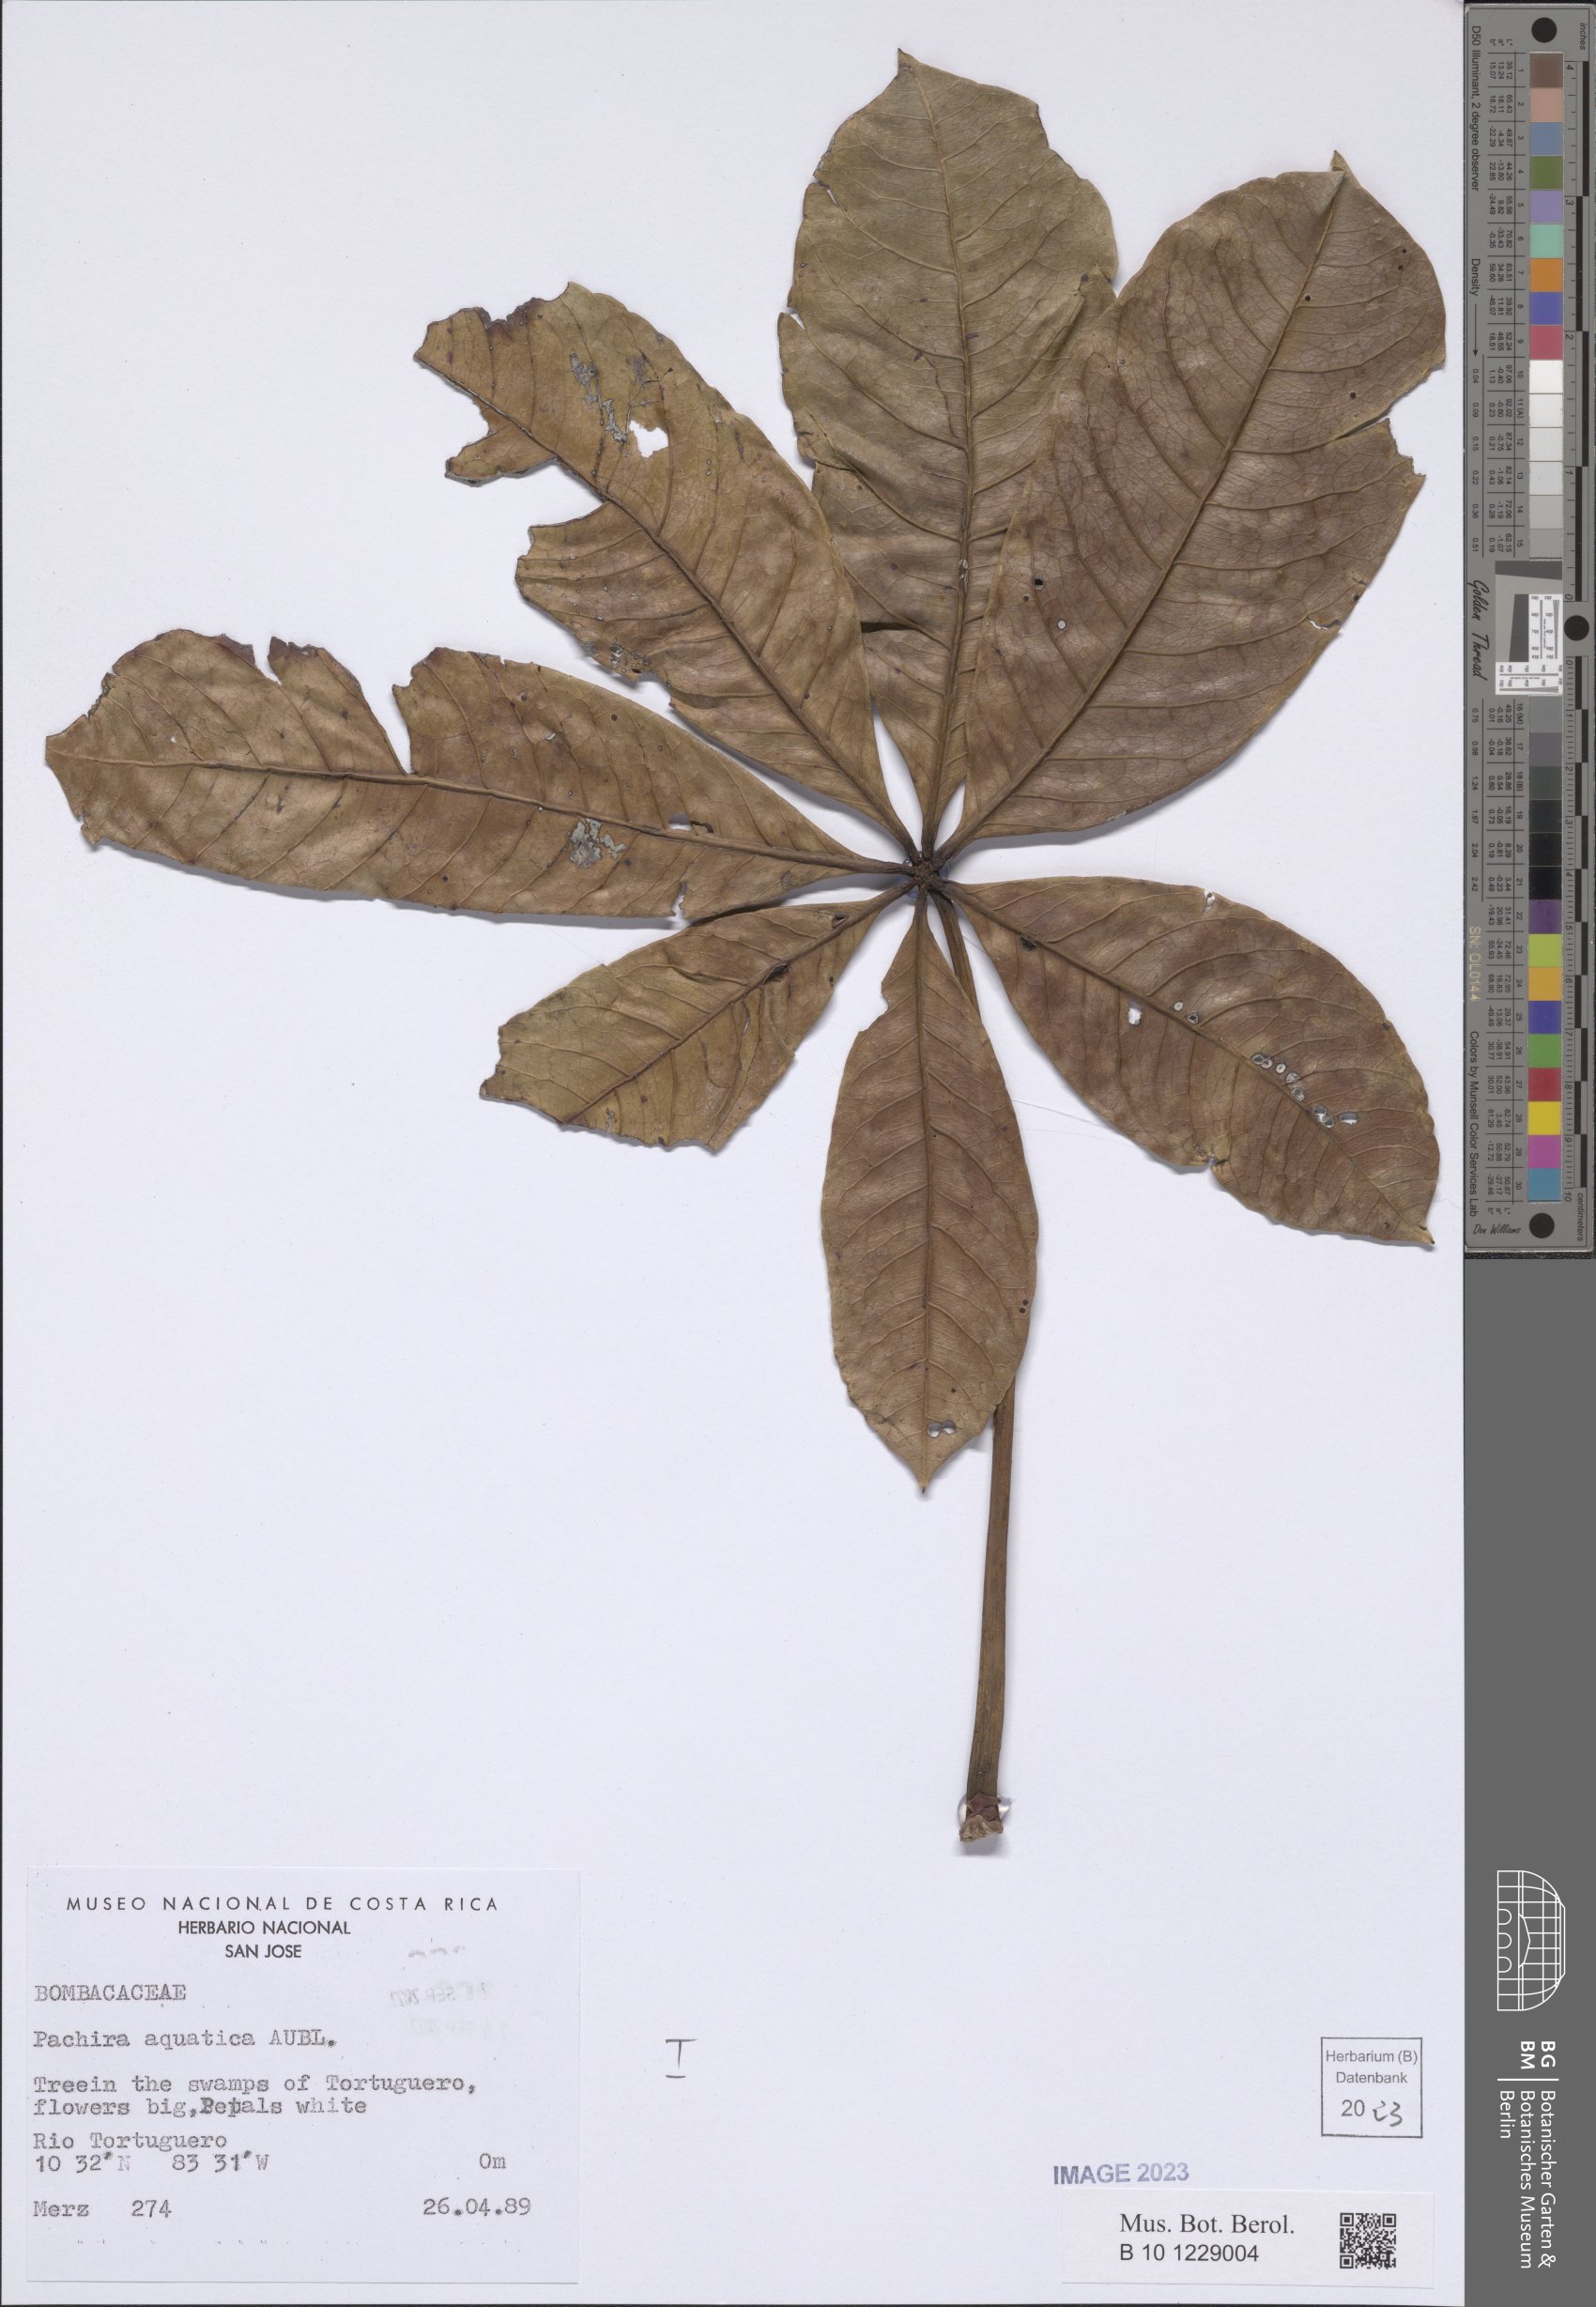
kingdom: Plantae
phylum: Tracheophyta
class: Magnoliopsida
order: Malvales
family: Malvaceae
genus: Pachira
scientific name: Pachira aquatica
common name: Provision-tree
